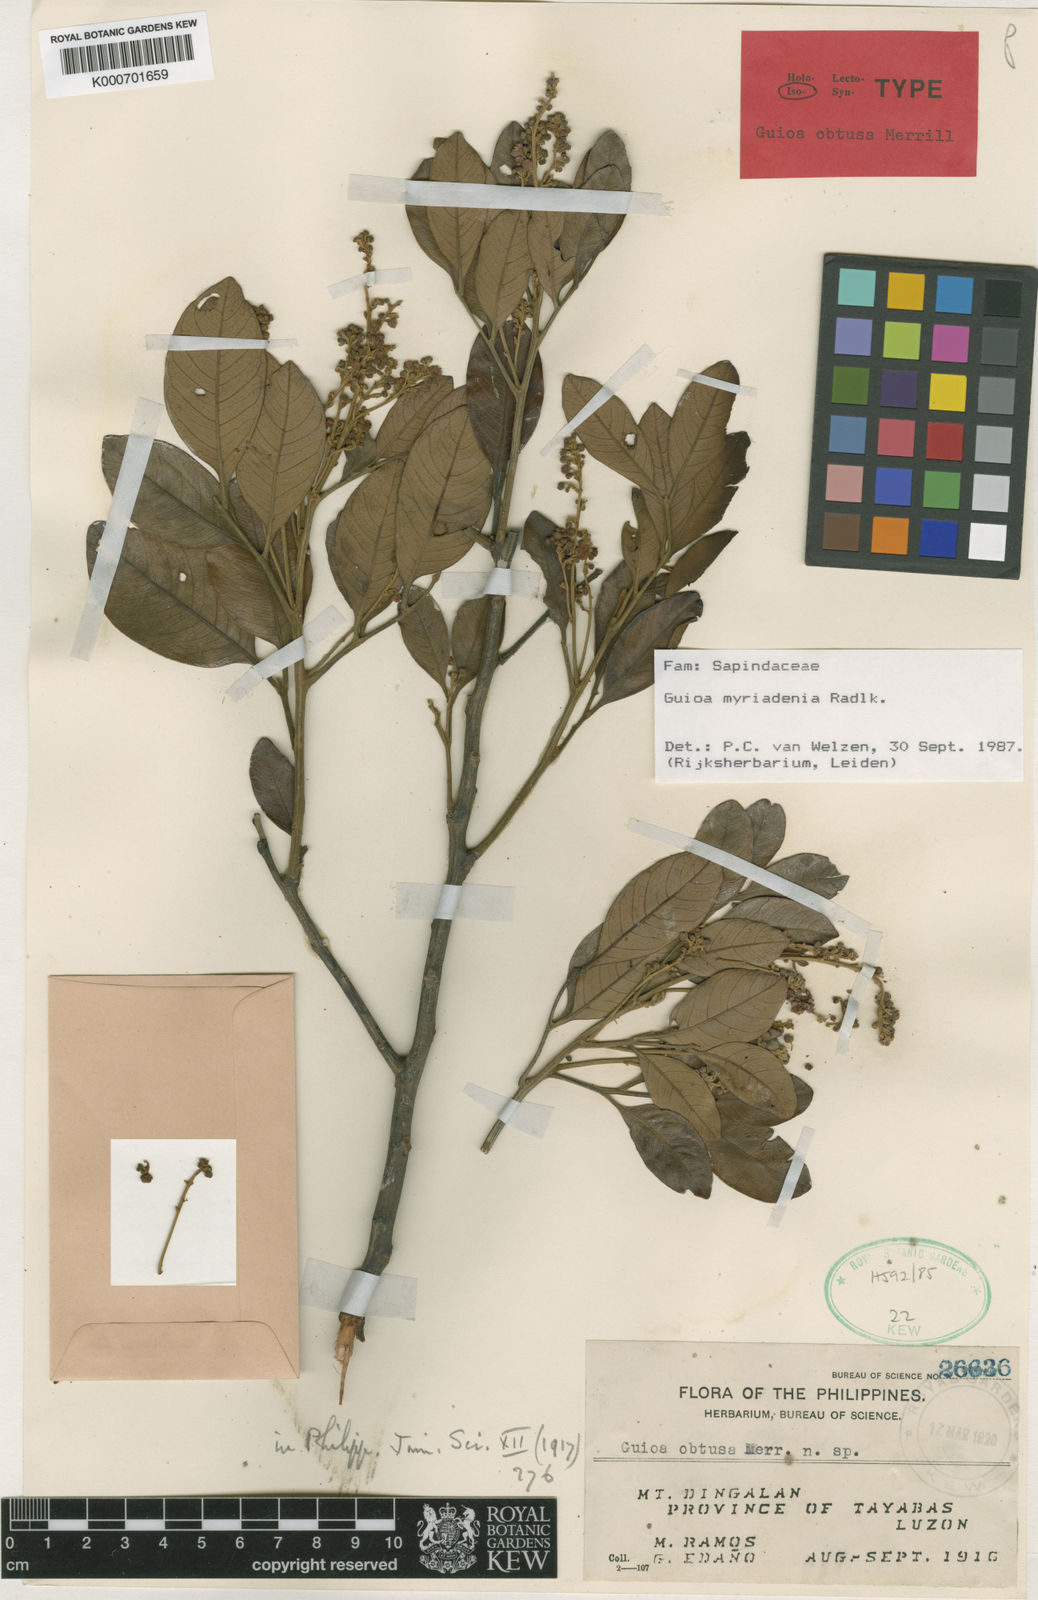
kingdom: Plantae
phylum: Tracheophyta
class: Magnoliopsida
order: Sapindales
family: Sapindaceae
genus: Guioa
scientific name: Guioa myriadenia
